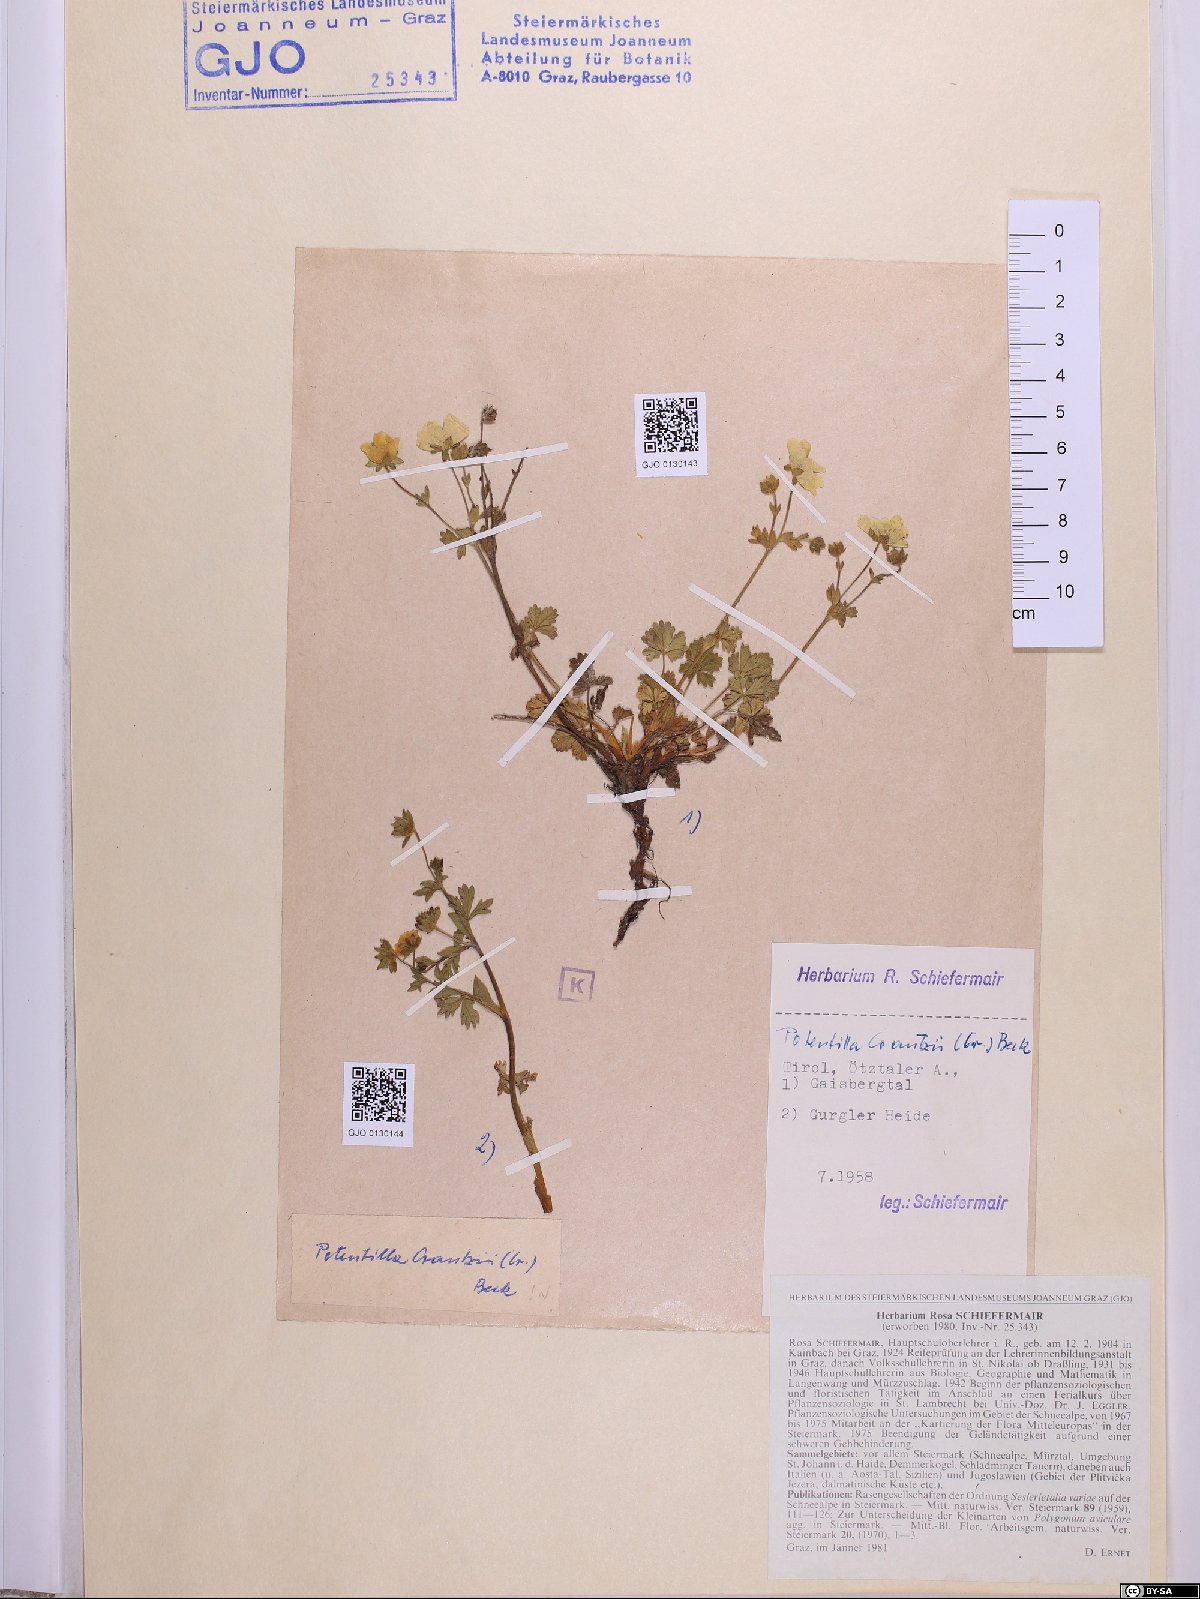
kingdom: Plantae
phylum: Tracheophyta
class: Magnoliopsida
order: Rosales
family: Rosaceae
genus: Potentilla
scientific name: Potentilla crantzii
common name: Alpine cinquefoil
